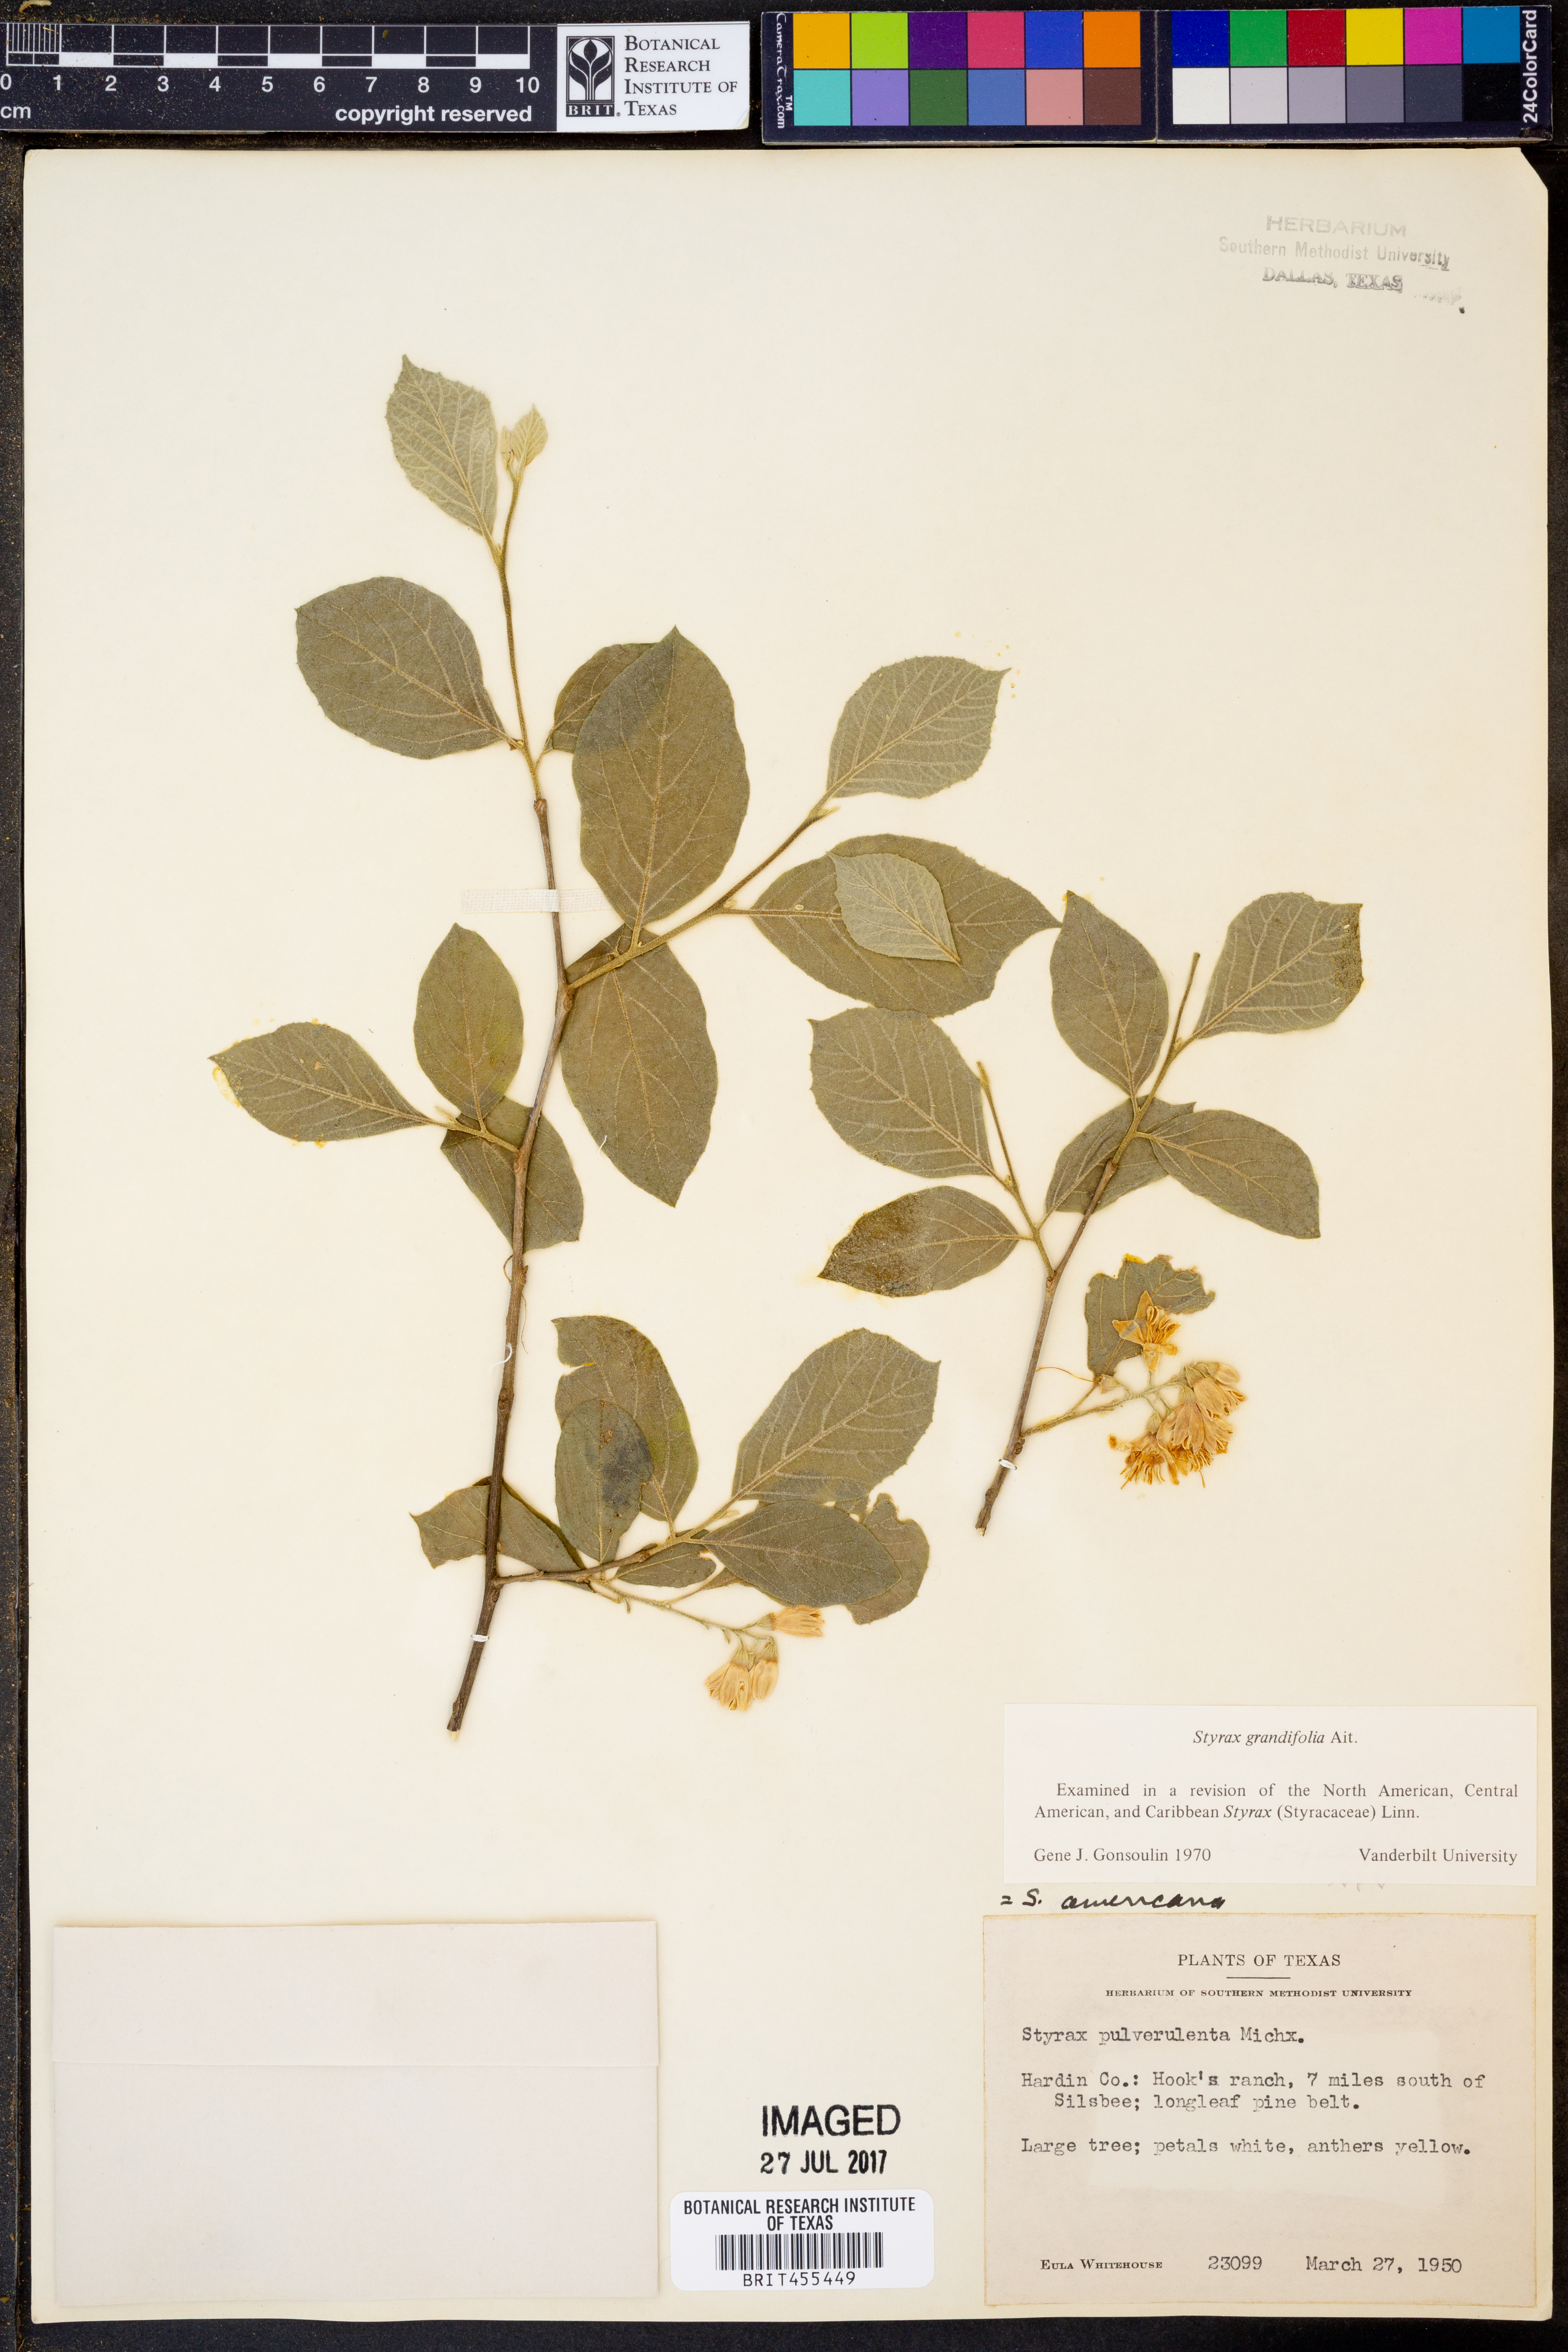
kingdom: Plantae
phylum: Tracheophyta
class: Magnoliopsida
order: Ericales
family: Styracaceae
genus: Styrax
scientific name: Styrax americanus
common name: American snowbell
